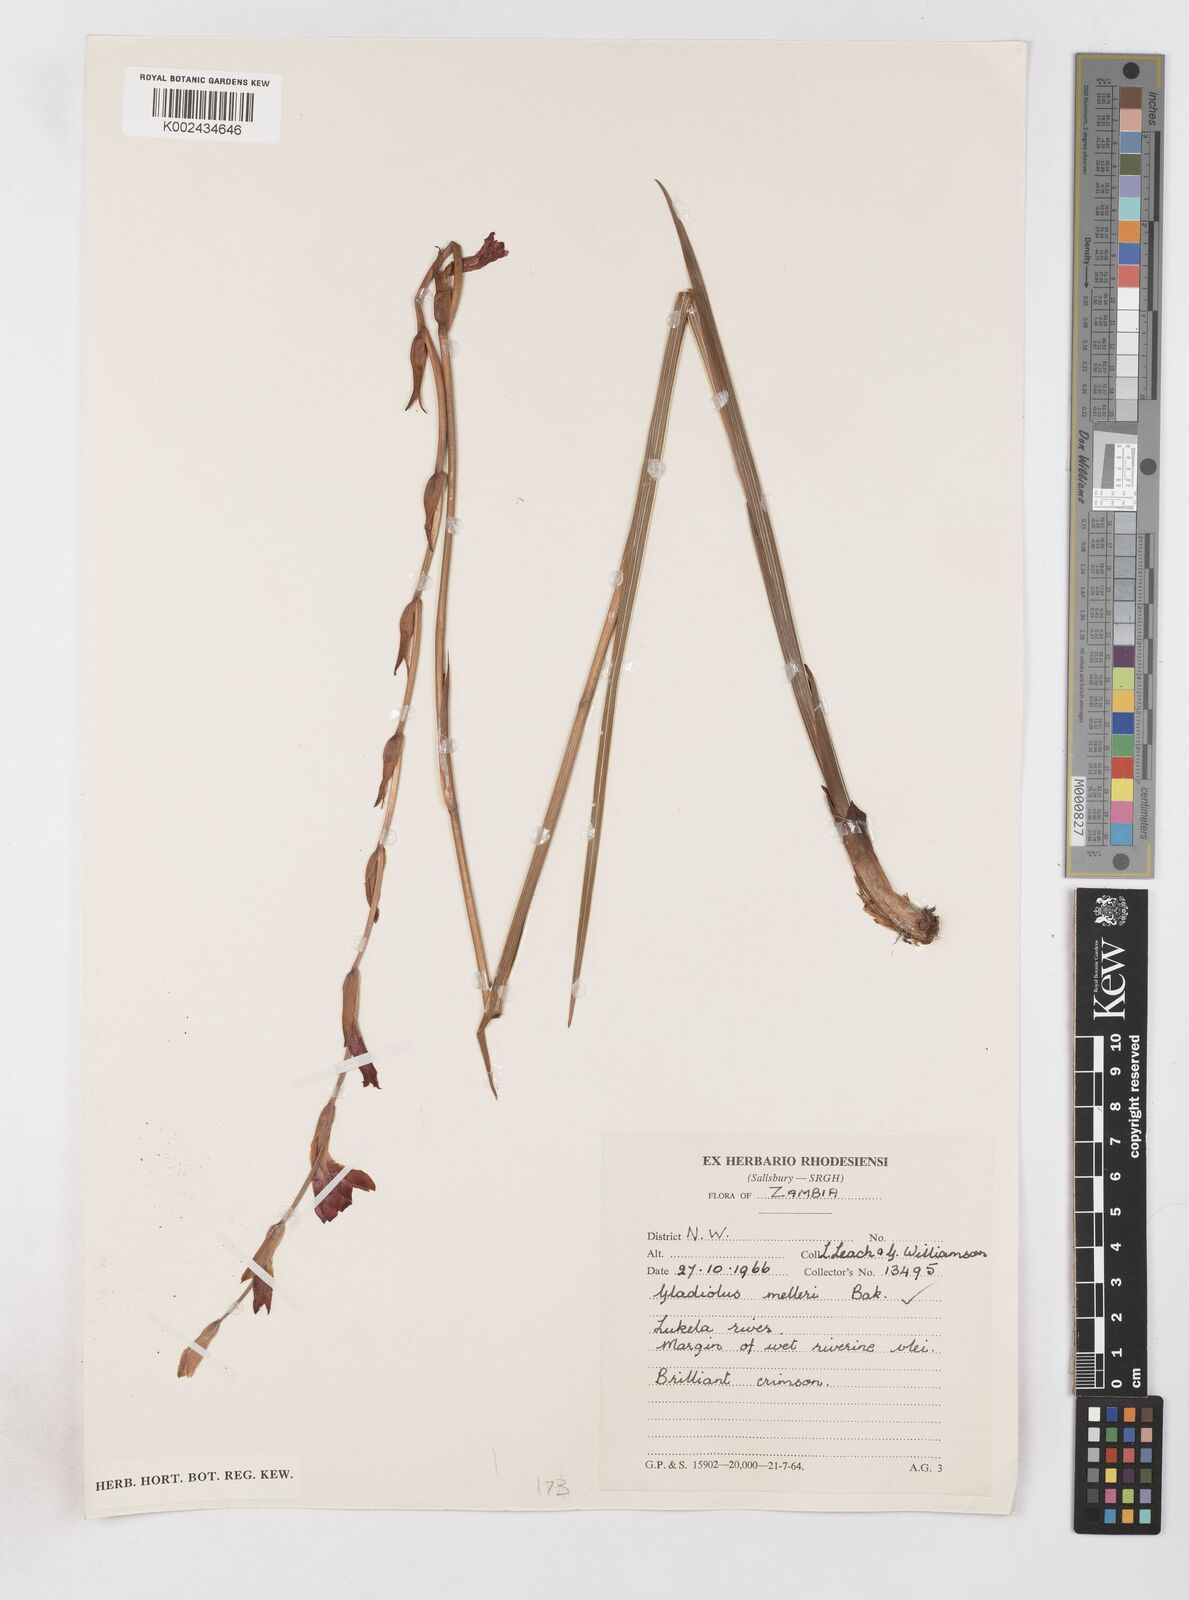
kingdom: Plantae
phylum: Tracheophyta
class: Liliopsida
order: Asparagales
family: Iridaceae
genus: Gladiolus
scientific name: Gladiolus melleri
